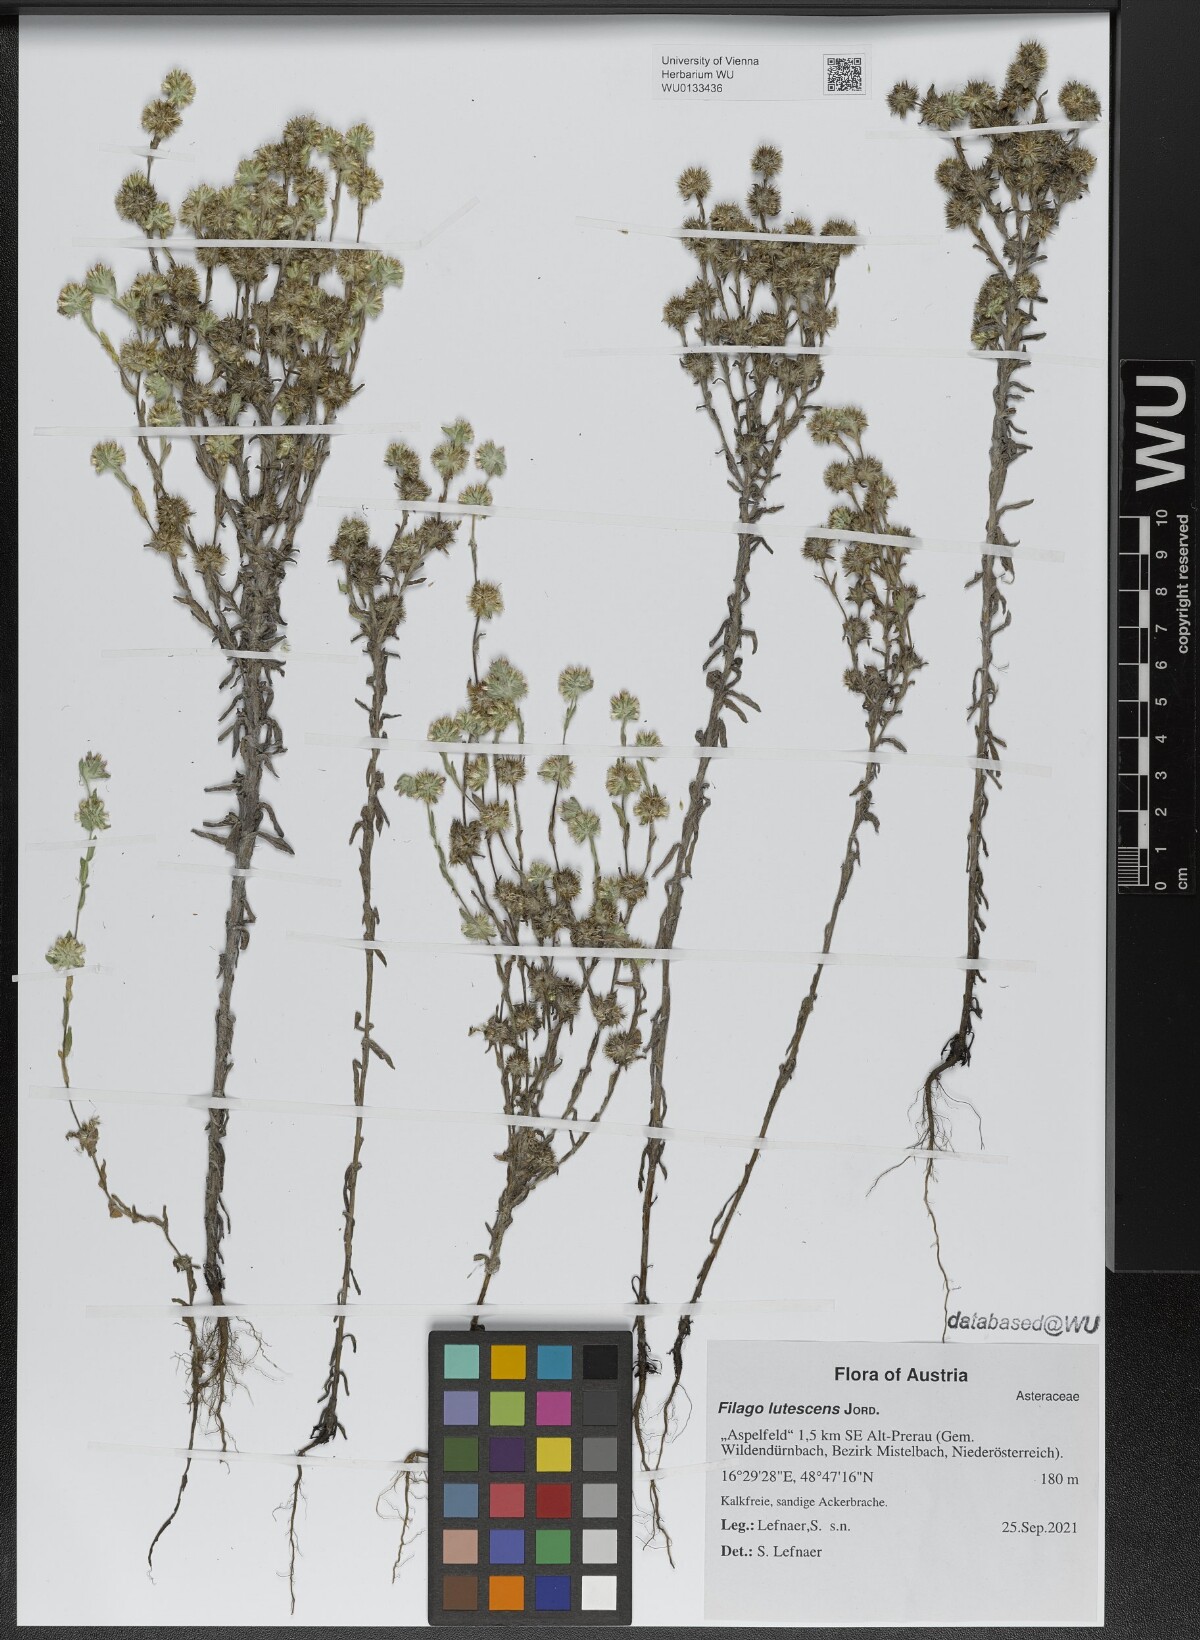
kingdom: Plantae
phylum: Tracheophyta
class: Magnoliopsida
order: Asterales
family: Asteraceae
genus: Filago
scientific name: Filago lutescens
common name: Red-tipped cudweed
